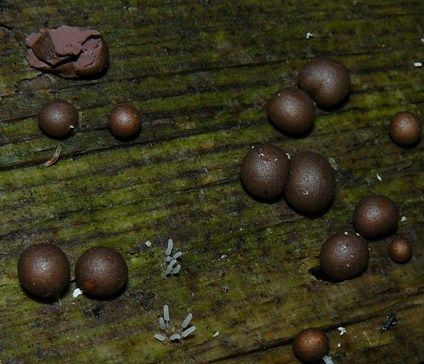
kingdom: Protozoa
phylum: Mycetozoa
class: Myxomycetes
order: Cribrariales
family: Tubiferaceae
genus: Lycogala
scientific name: Lycogala epidendrum
